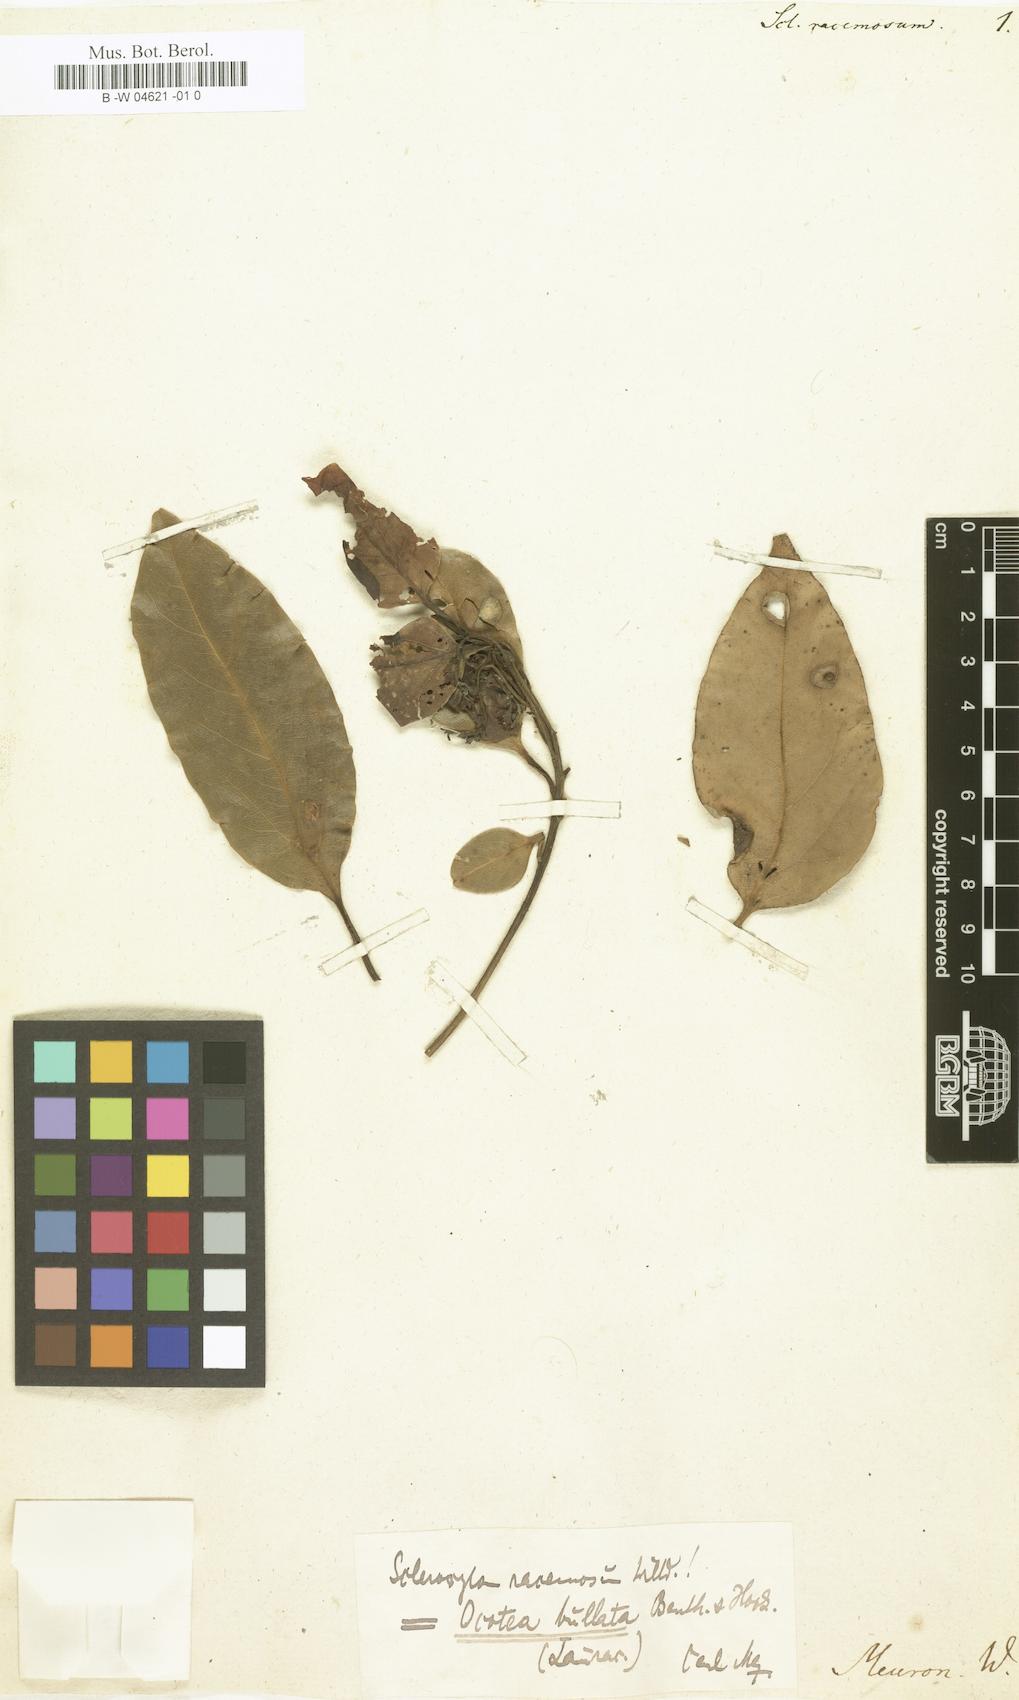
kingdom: Plantae
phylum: Tracheophyta
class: Magnoliopsida
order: Ericales
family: Sapotaceae
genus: Scleroxylon
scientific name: Scleroxylon
